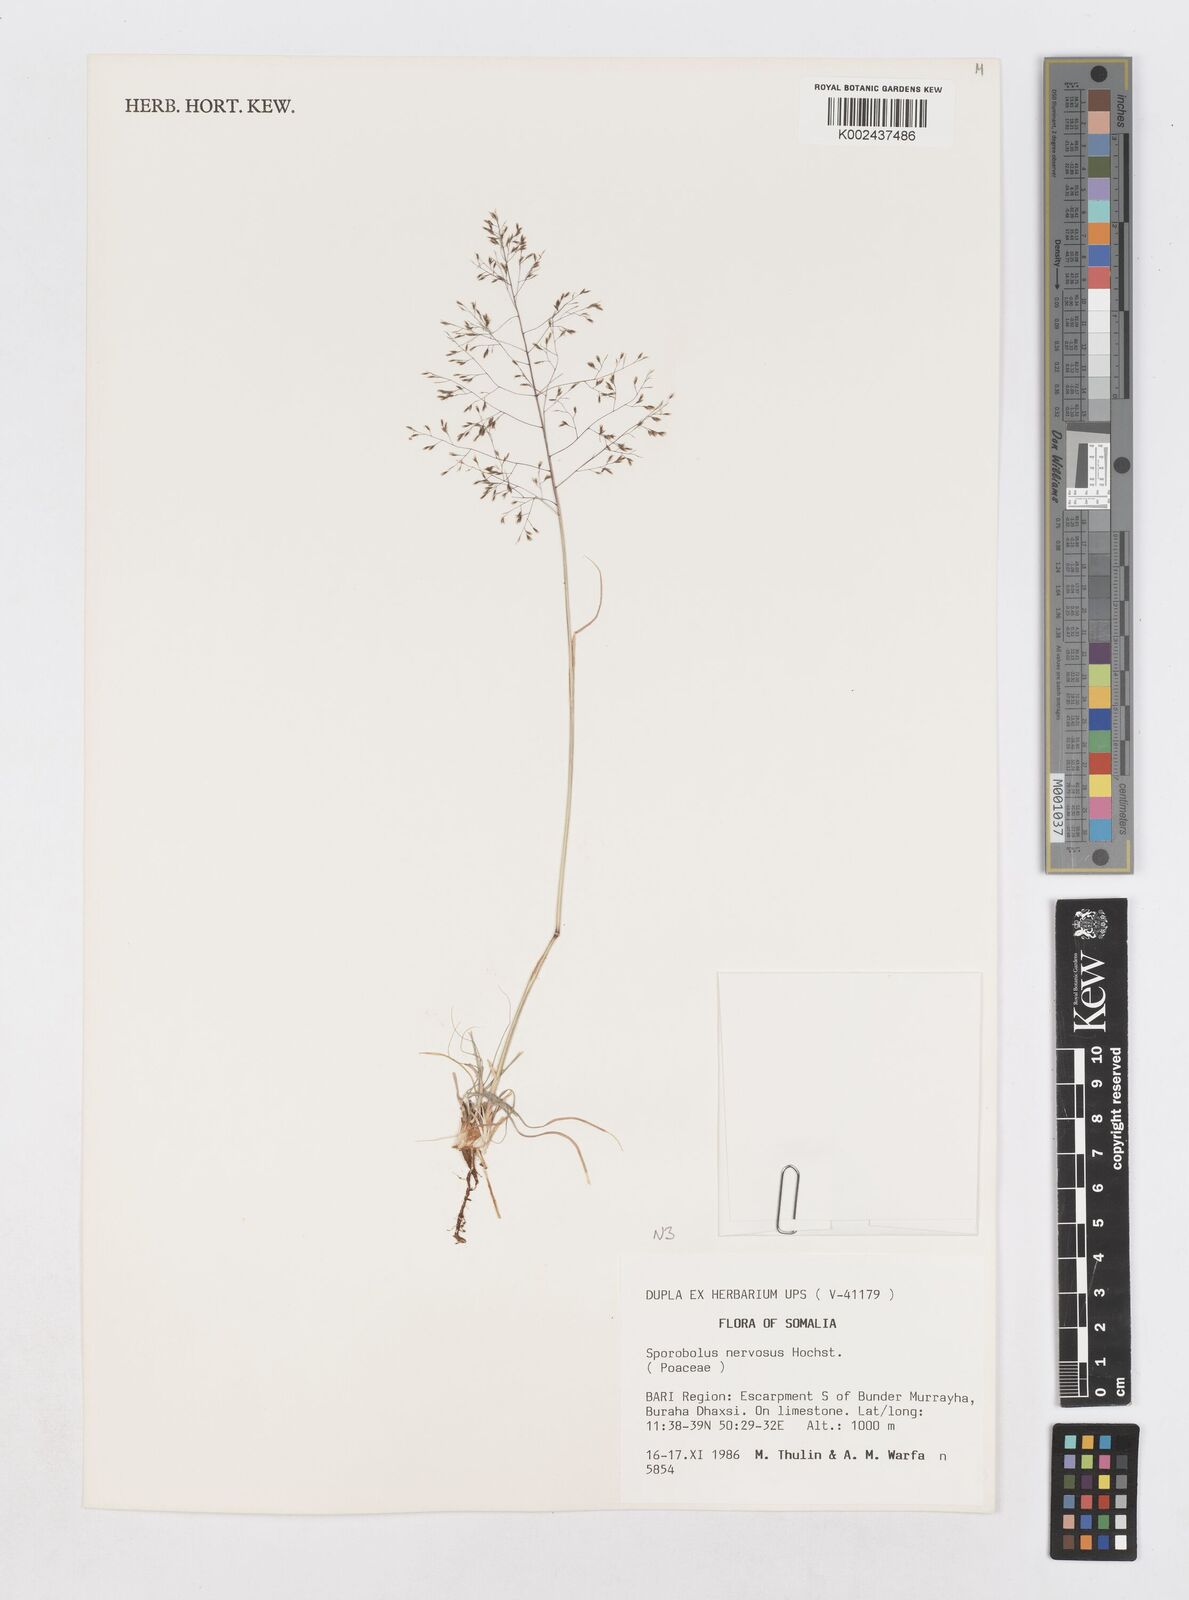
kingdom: Plantae
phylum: Tracheophyta
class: Liliopsida
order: Poales
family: Poaceae
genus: Sporobolus
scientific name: Sporobolus nervosus
